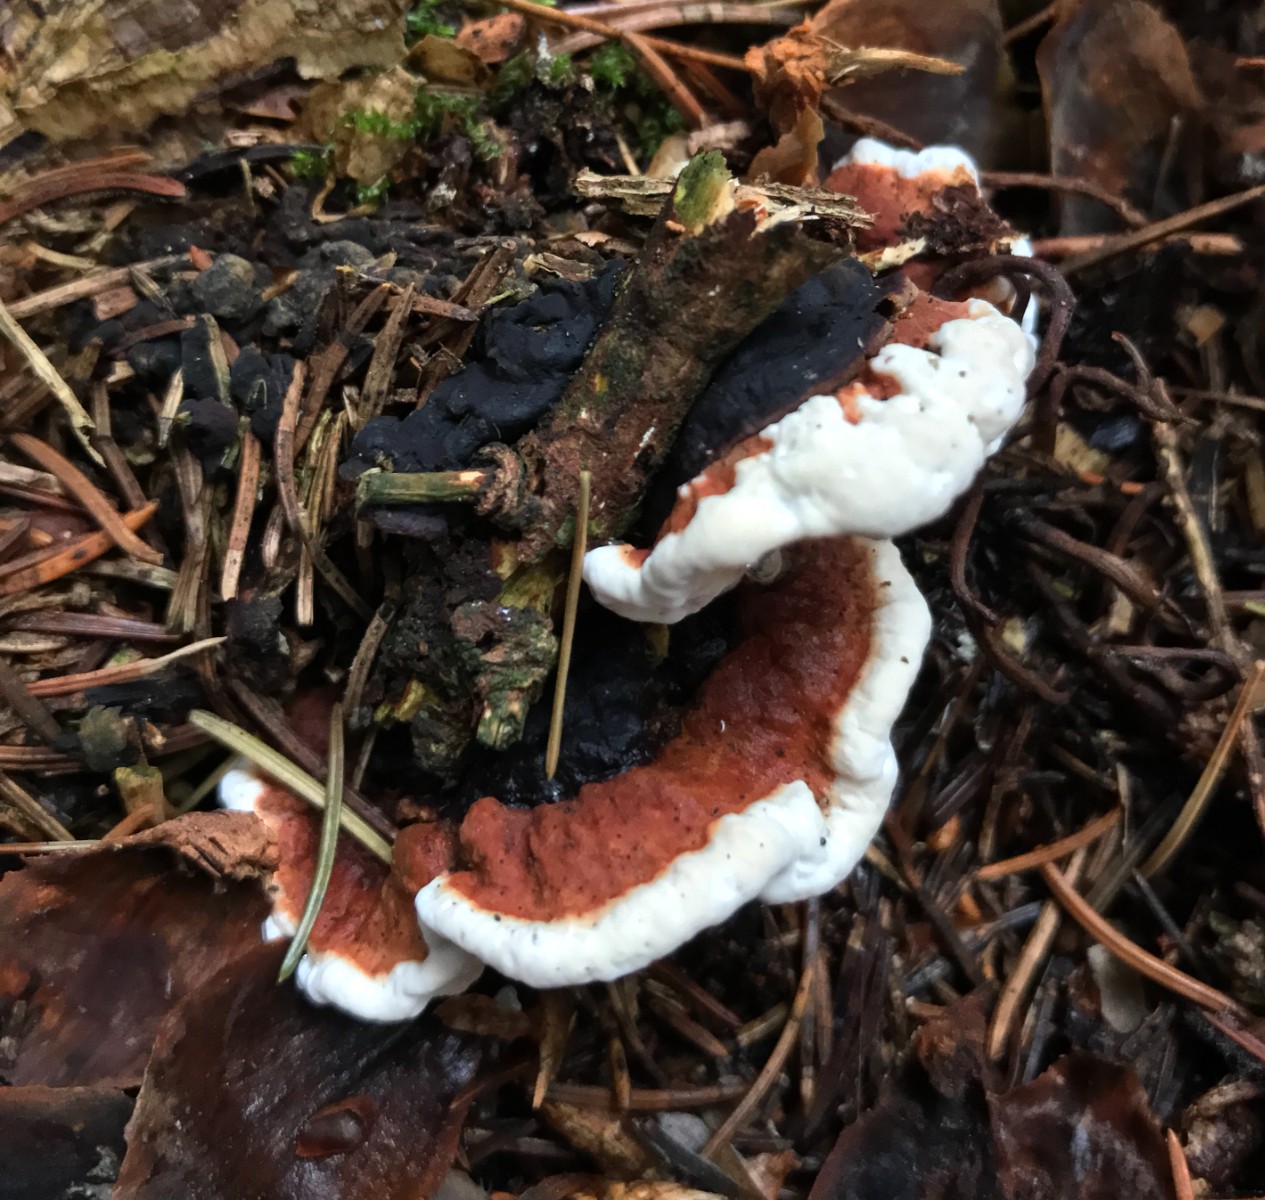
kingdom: Fungi
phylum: Basidiomycota
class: Agaricomycetes
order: Russulales
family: Bondarzewiaceae
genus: Heterobasidion
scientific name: Heterobasidion annosum
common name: almindelig rodfordærver
